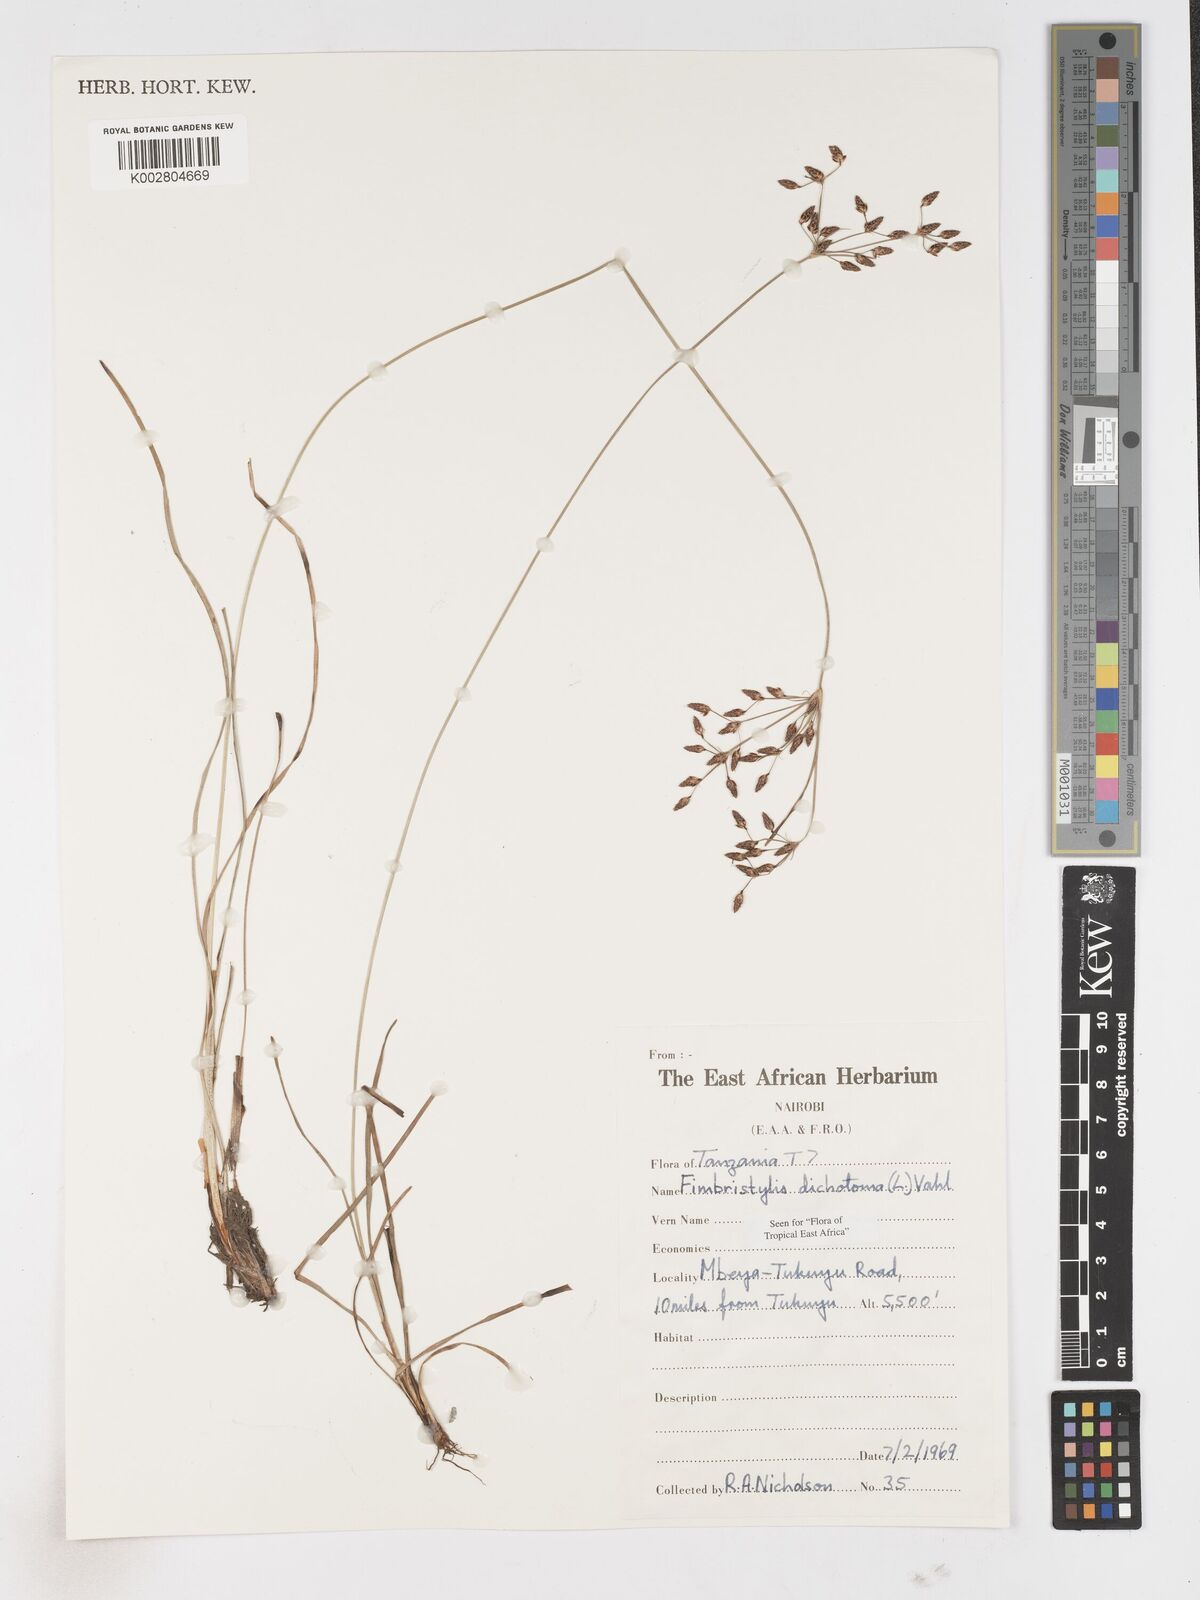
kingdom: Plantae
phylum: Tracheophyta
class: Liliopsida
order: Poales
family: Cyperaceae
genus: Fimbristylis
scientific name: Fimbristylis dichotoma
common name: Forked fimbry
